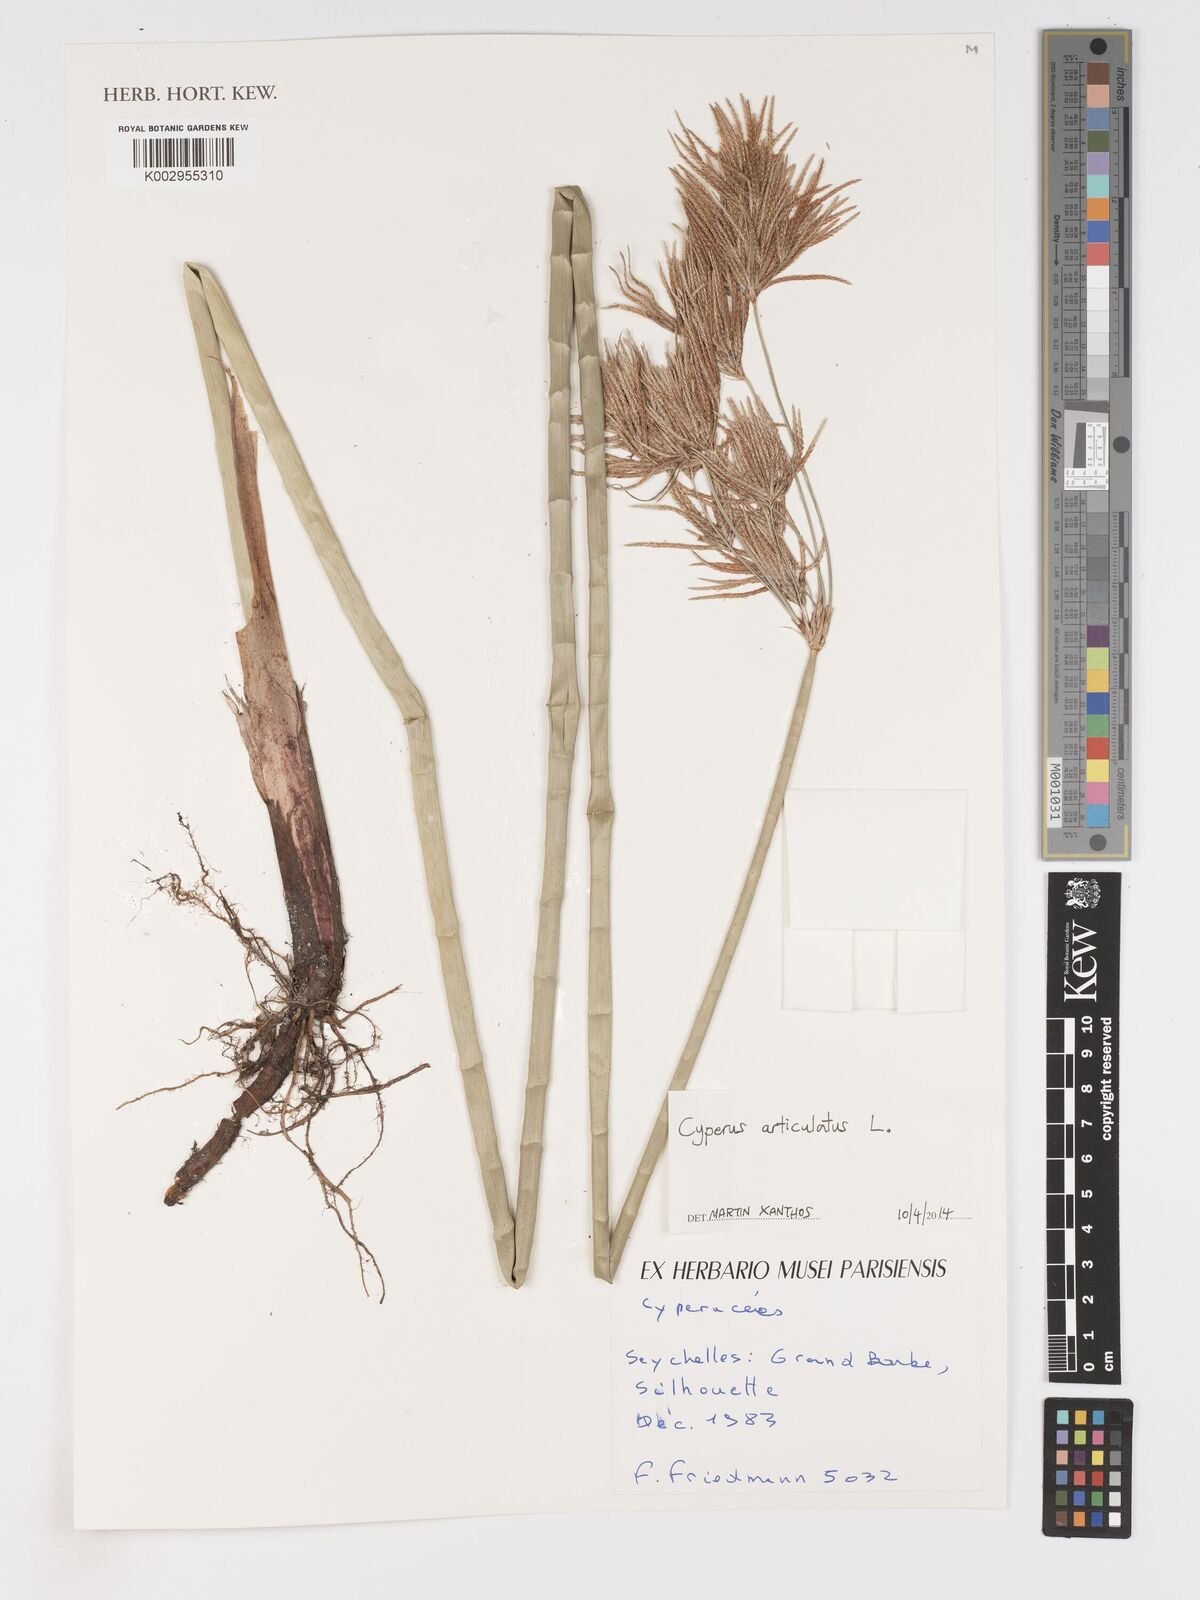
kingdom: Plantae
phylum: Tracheophyta
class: Liliopsida
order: Poales
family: Cyperaceae
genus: Cyperus
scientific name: Cyperus articulatus
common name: Jointed flatsedge
